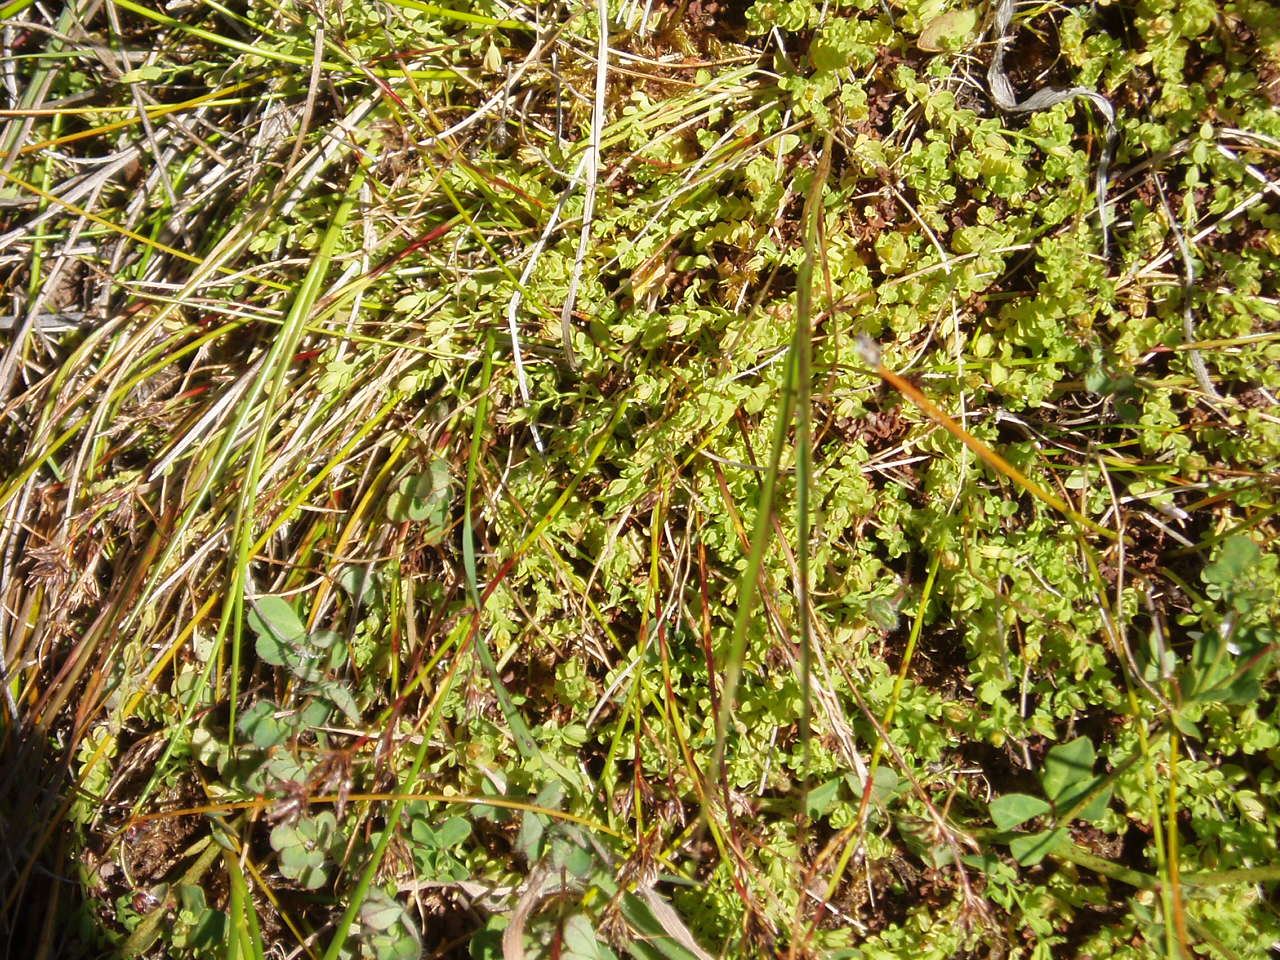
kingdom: Plantae
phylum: Tracheophyta
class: Magnoliopsida
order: Malpighiales
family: Hypericaceae
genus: Hypericum
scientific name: Hypericum japonicum
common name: Matted st. john's-wort
